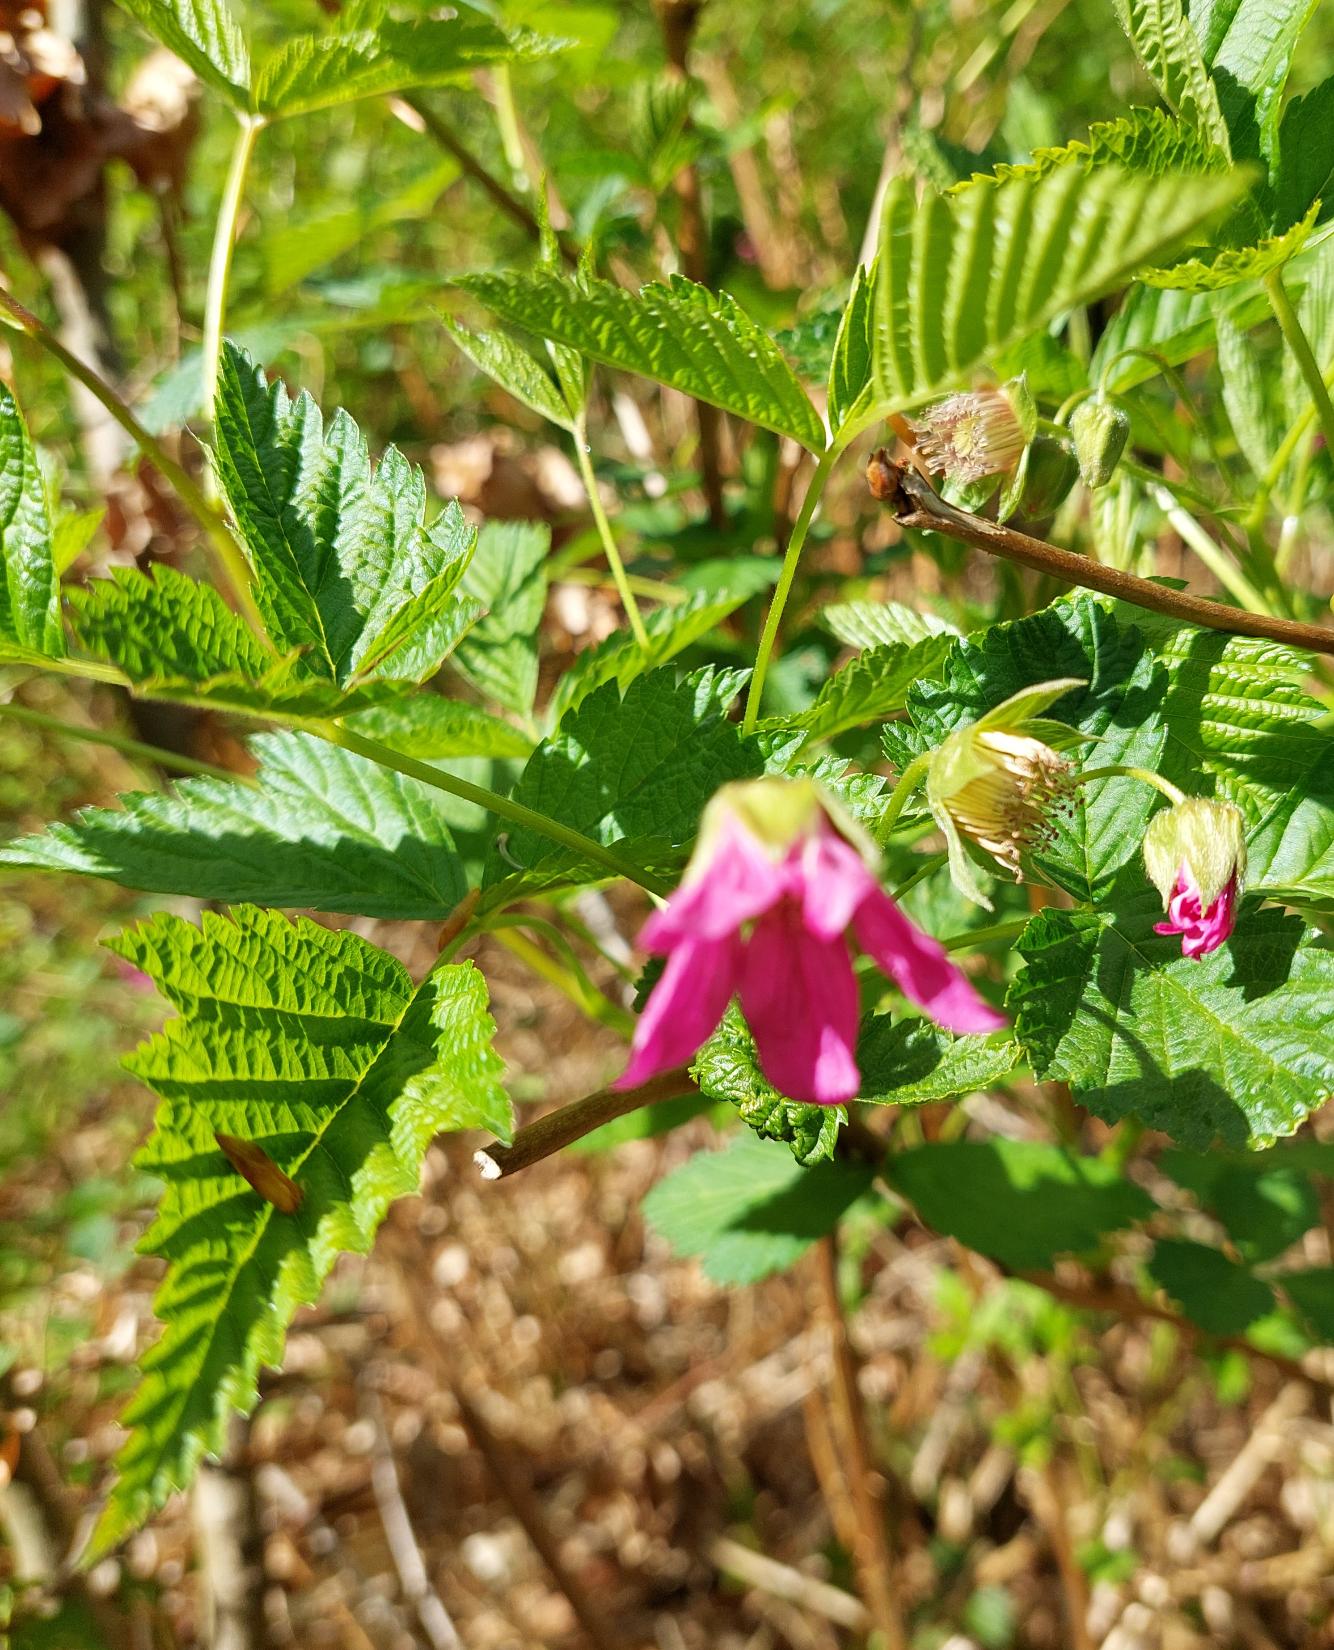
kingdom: Plantae
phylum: Tracheophyta
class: Magnoliopsida
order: Rosales
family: Rosaceae
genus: Rubus
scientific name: Rubus spectabilis
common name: Laksebær
